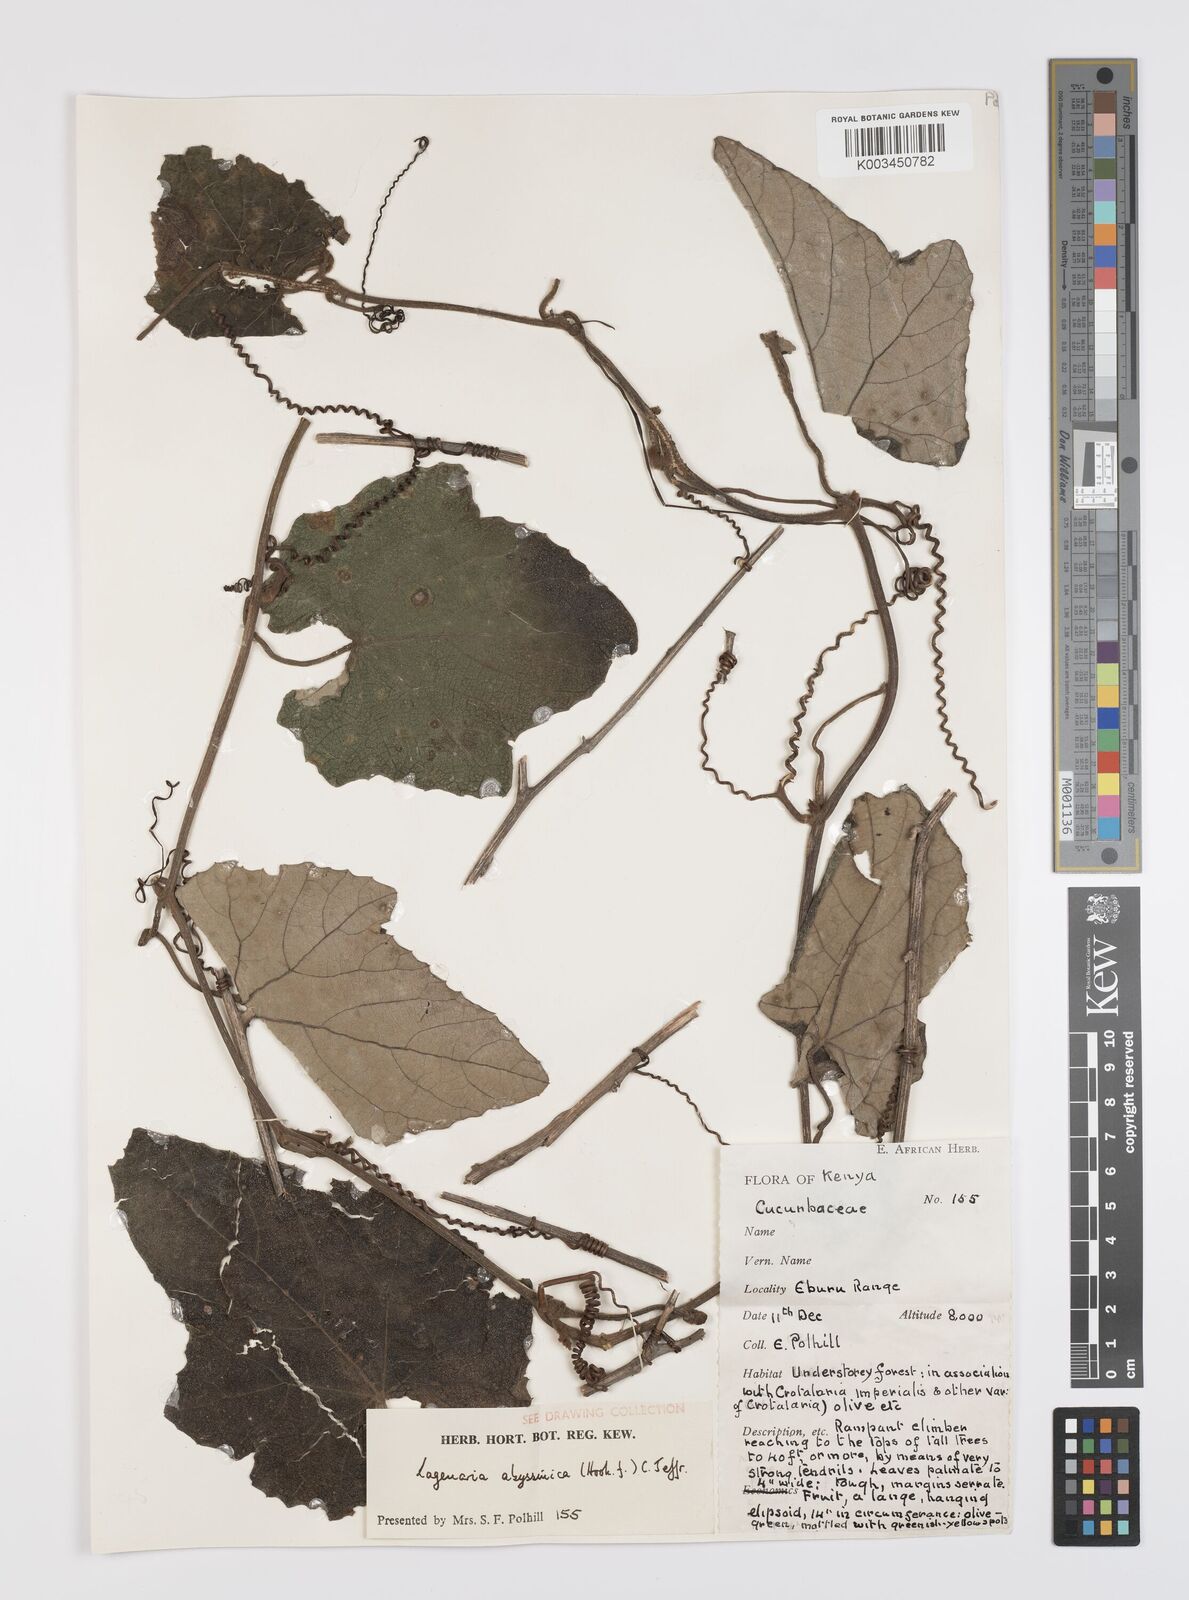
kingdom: Plantae
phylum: Tracheophyta
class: Magnoliopsida
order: Cucurbitales
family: Cucurbitaceae
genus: Lagenaria
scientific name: Lagenaria abyssinica
